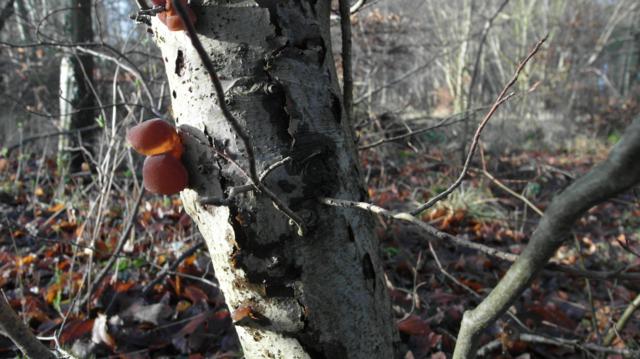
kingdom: Fungi
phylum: Basidiomycota
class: Agaricomycetes
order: Auriculariales
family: Auriculariaceae
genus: Auricularia
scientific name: Auricularia auricula-judae
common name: almindelig judasøre
